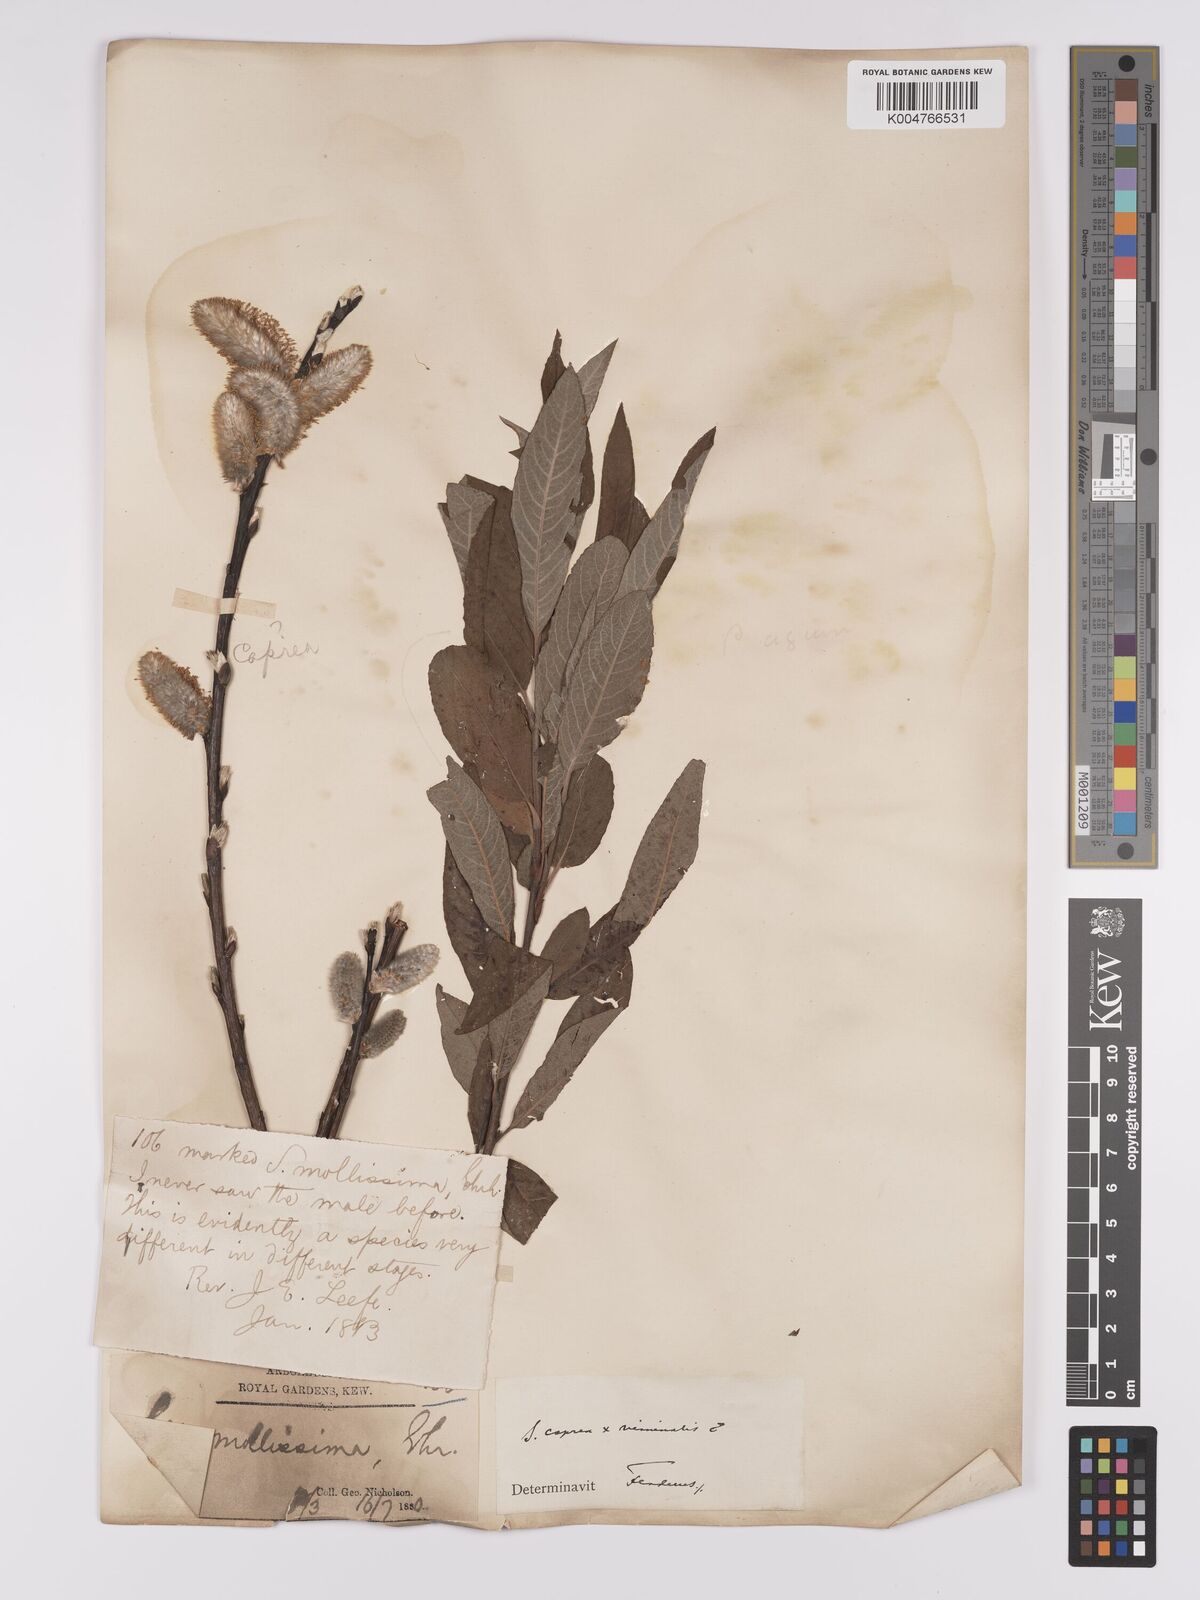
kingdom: Plantae
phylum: Tracheophyta
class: Magnoliopsida
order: Malpighiales
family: Salicaceae
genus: Salix
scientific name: Salix caprea
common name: Goat willow
